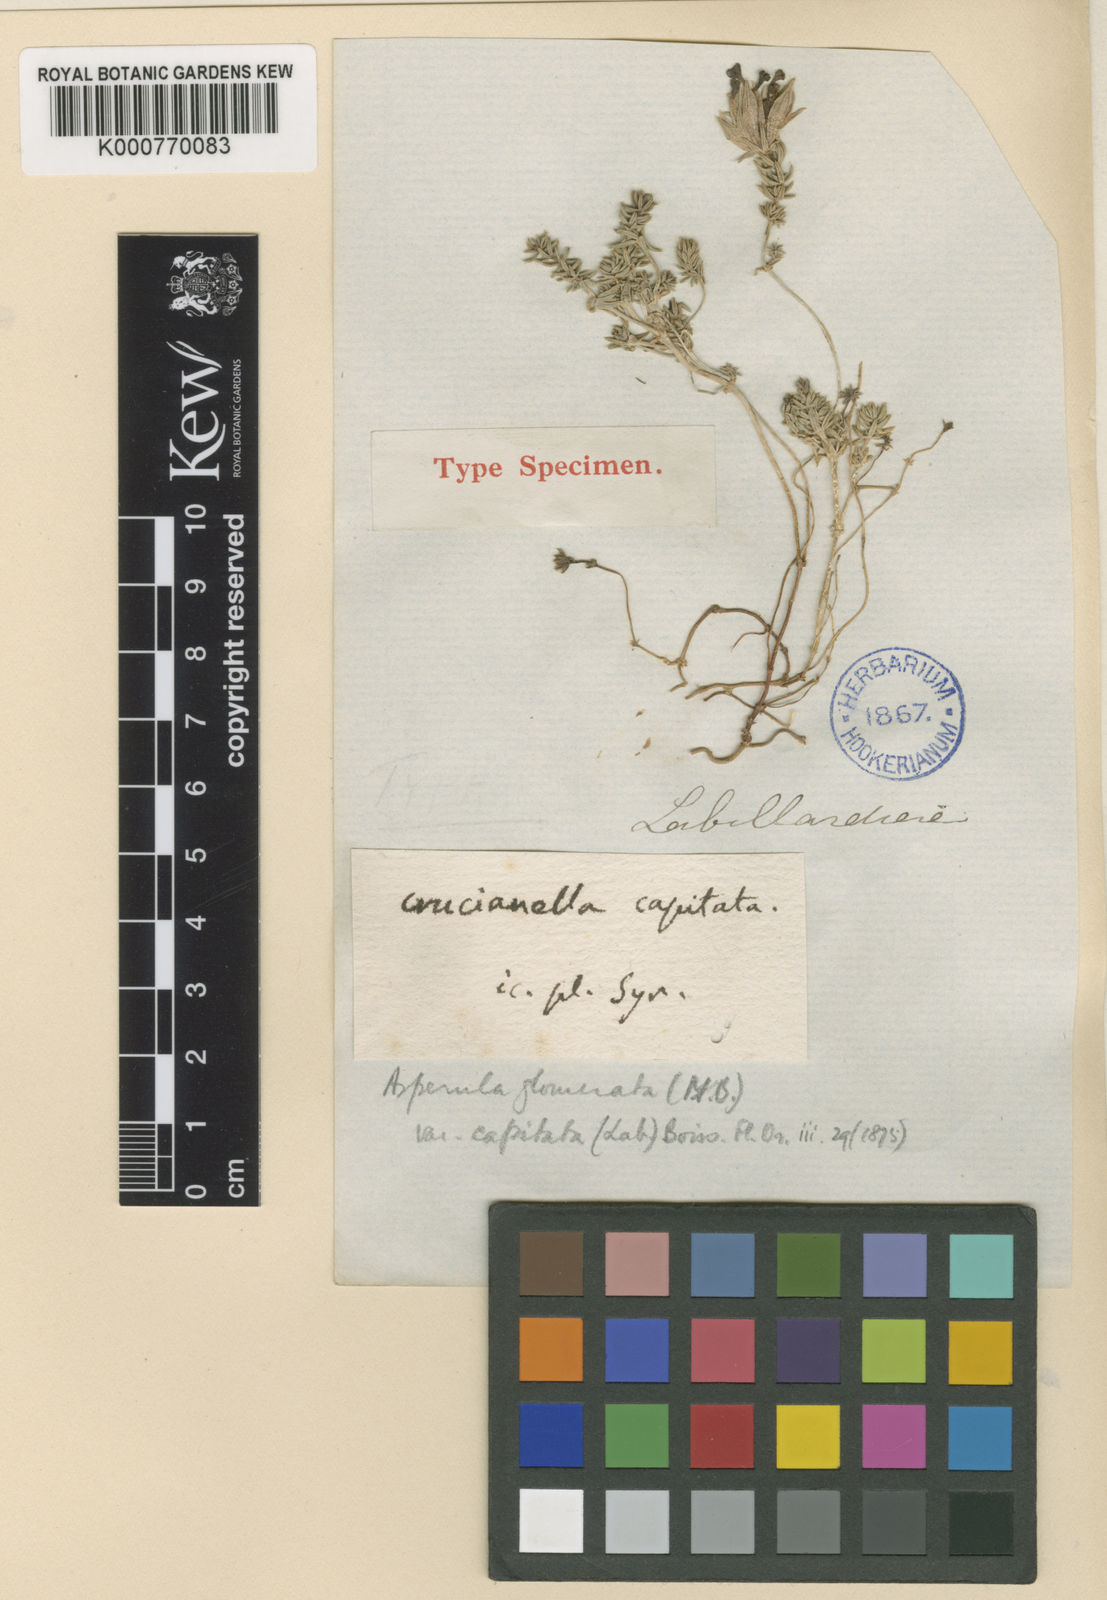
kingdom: Plantae
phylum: Tracheophyta
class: Magnoliopsida
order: Gentianales
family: Rubiaceae
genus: Hexaphylla
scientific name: Hexaphylla capitata
